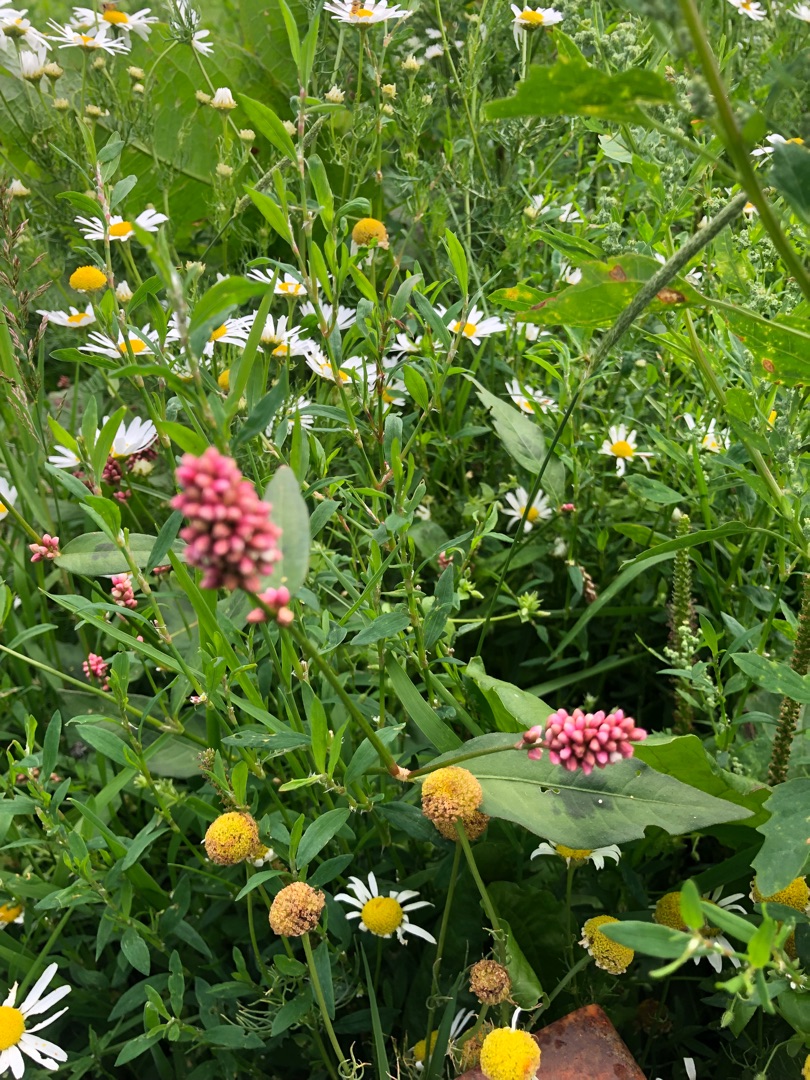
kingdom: Plantae
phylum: Tracheophyta
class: Magnoliopsida
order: Caryophyllales
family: Polygonaceae
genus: Persicaria
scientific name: Persicaria maculosa
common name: Fersken-pileurt
